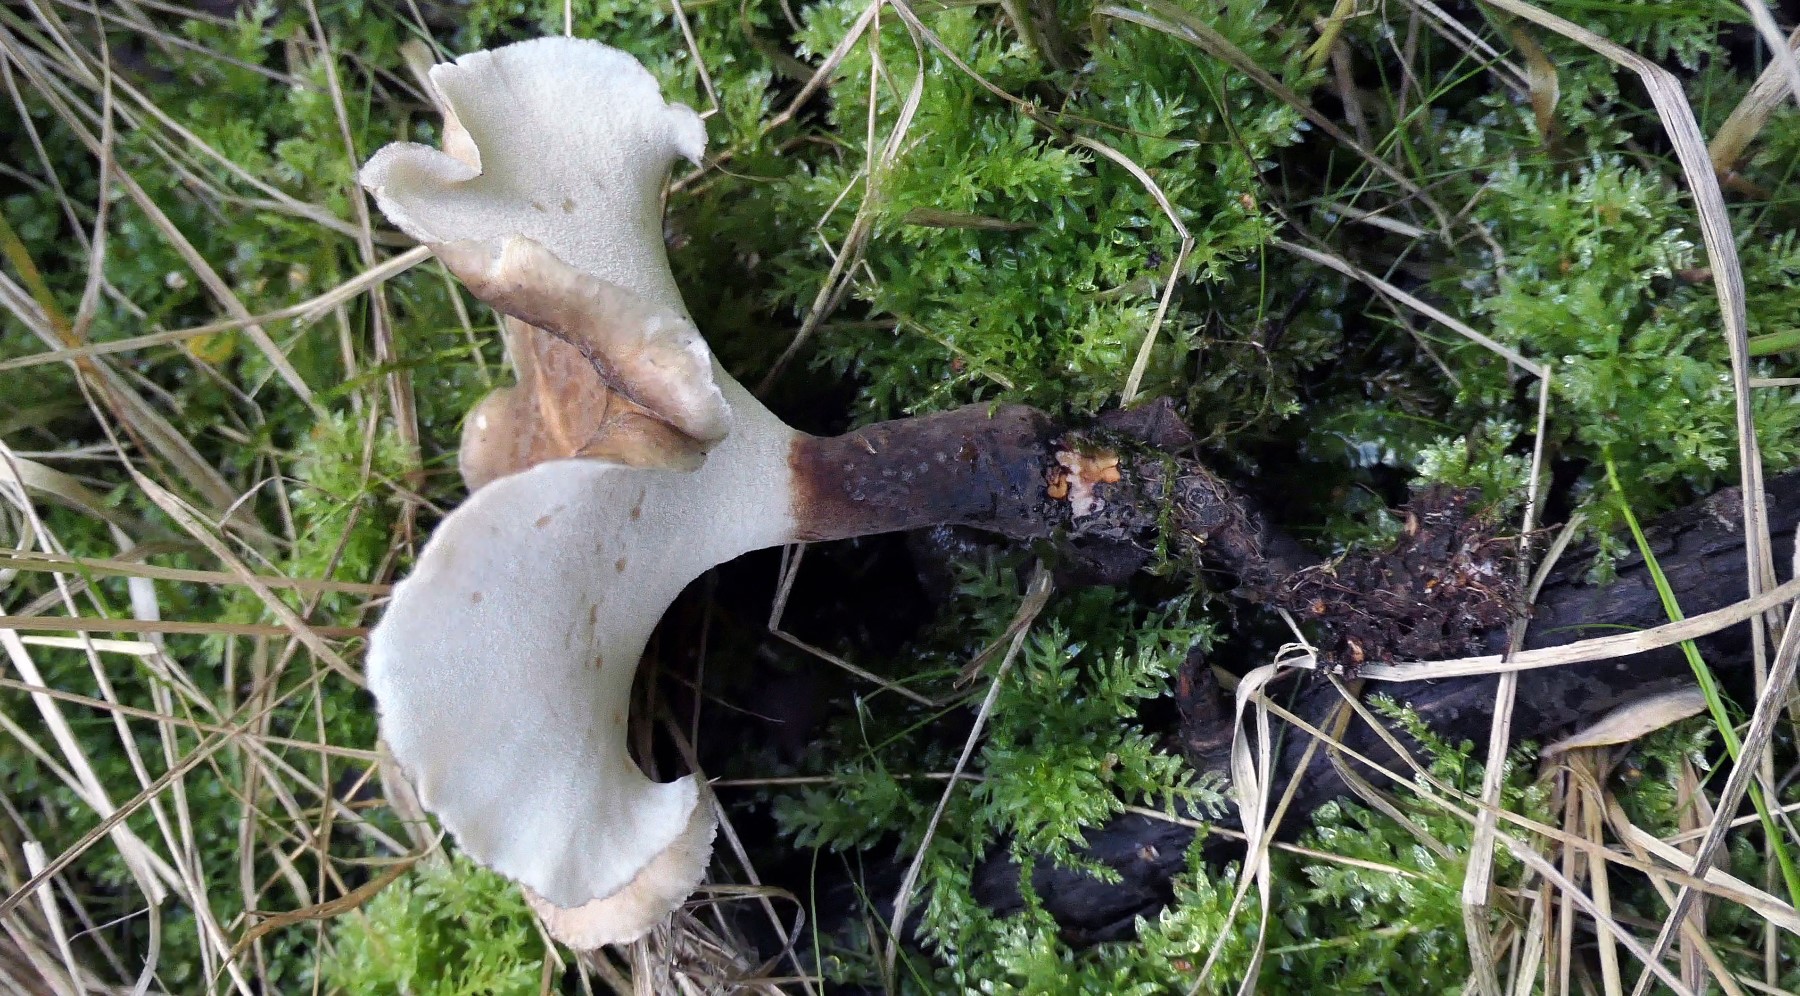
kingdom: Fungi
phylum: Basidiomycota
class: Agaricomycetes
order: Polyporales
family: Polyporaceae
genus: Picipes
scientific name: Picipes melanopus
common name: sortfodet stilkporesvamp
